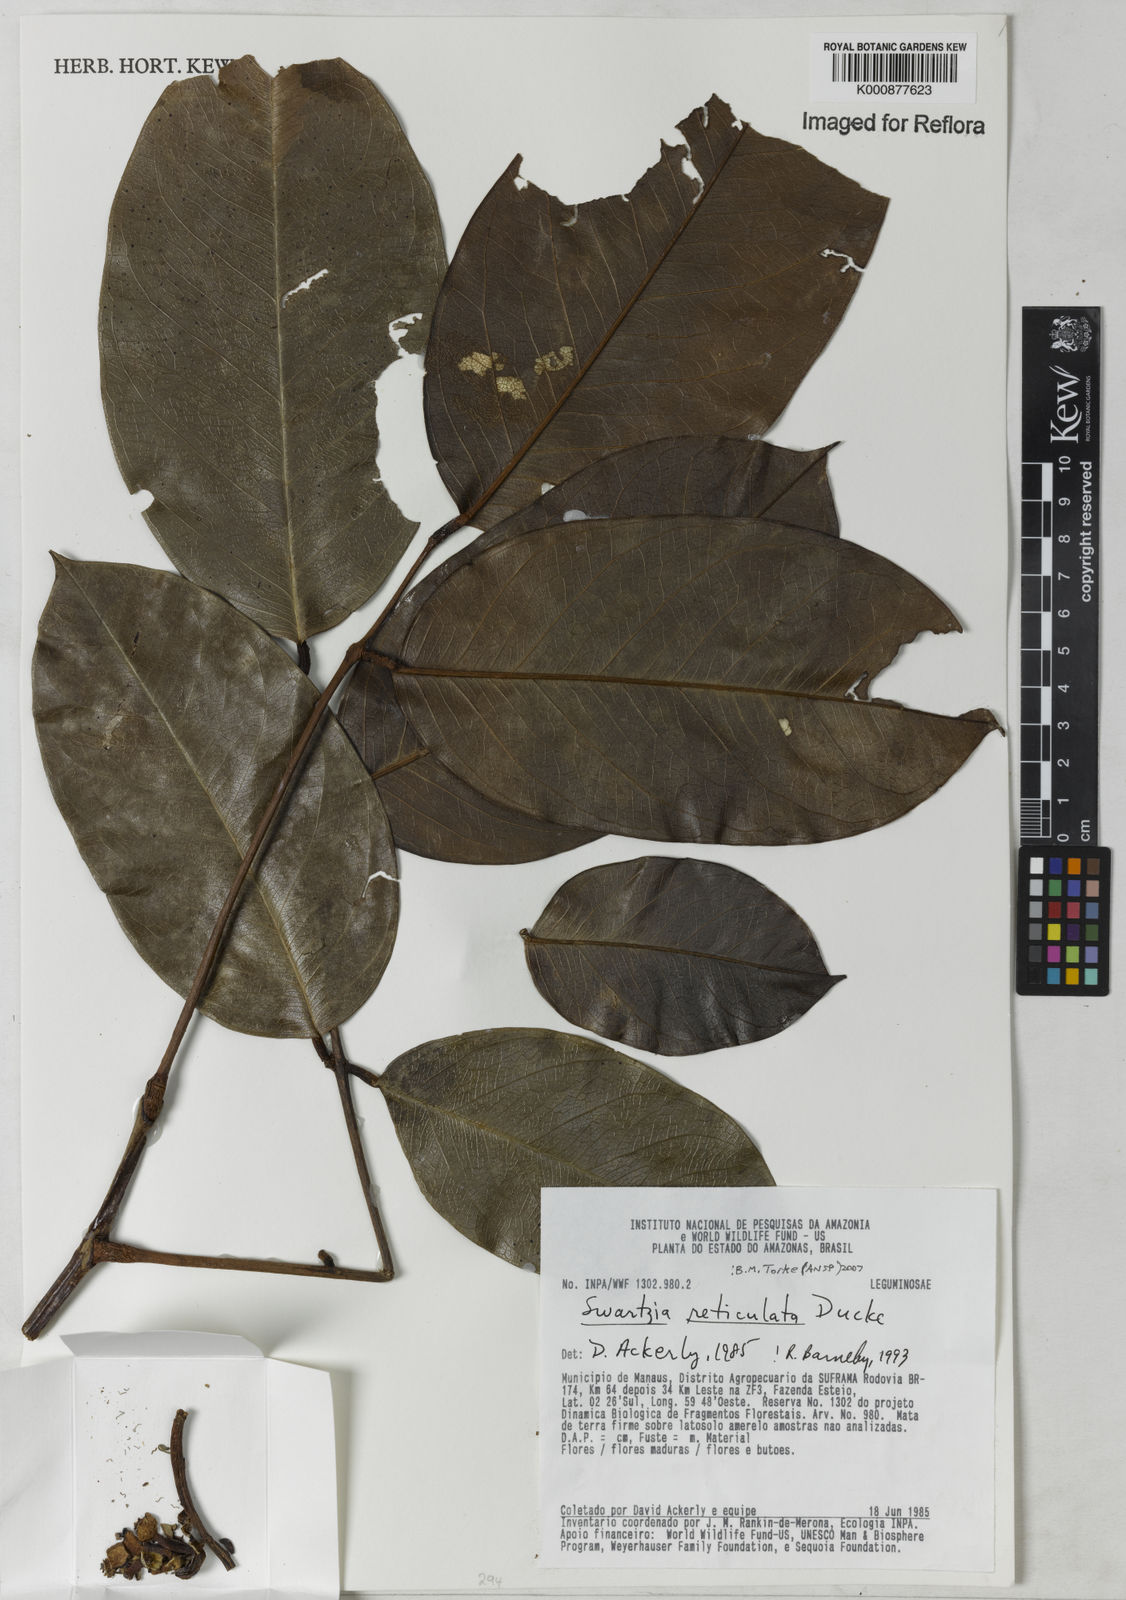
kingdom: Plantae
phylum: Tracheophyta
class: Magnoliopsida
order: Fabales
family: Fabaceae
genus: Swartzia
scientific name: Swartzia reticulata
